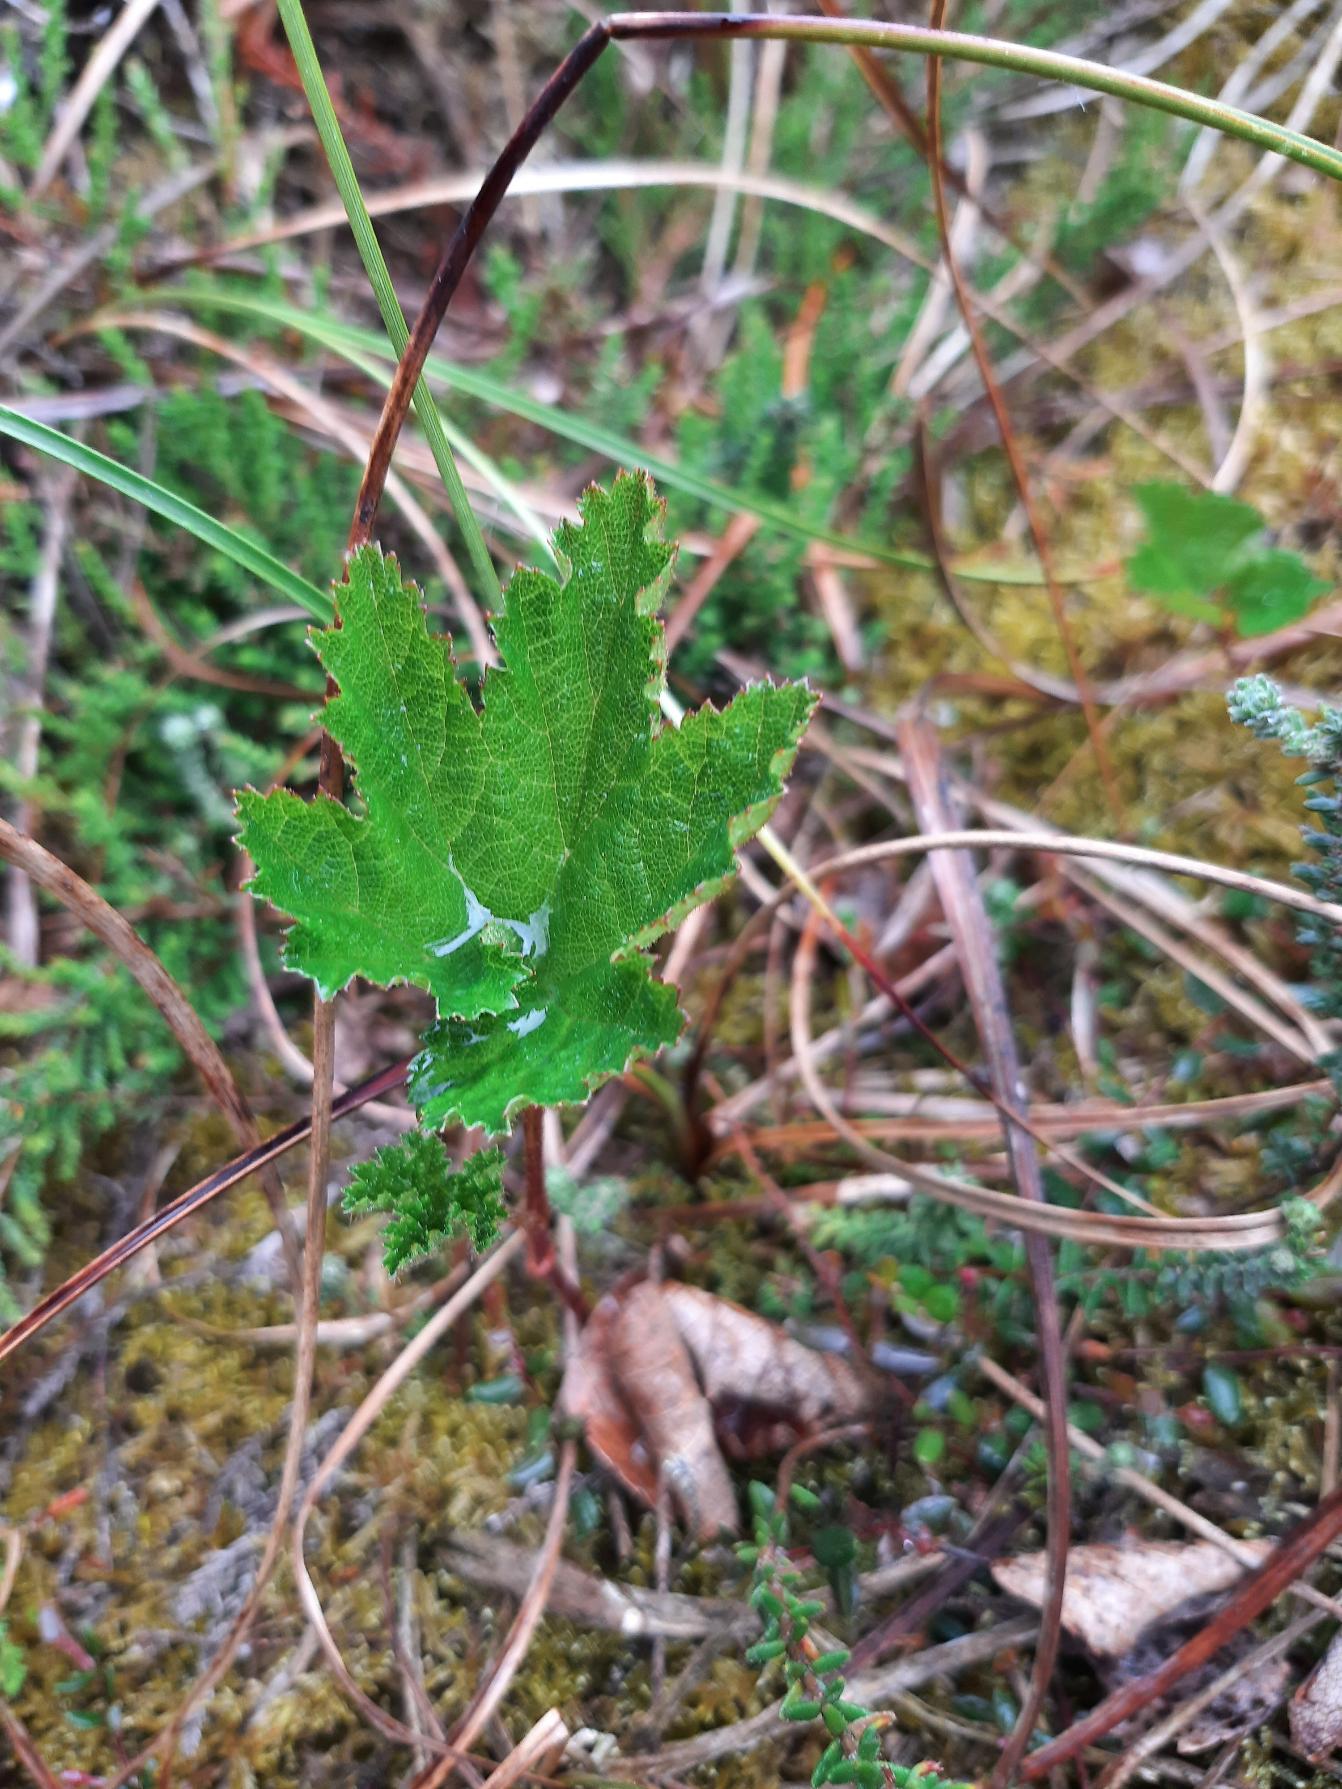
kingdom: Plantae
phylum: Tracheophyta
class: Magnoliopsida
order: Rosales
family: Rosaceae
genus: Rubus
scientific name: Rubus chamaemorus
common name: Multebær
